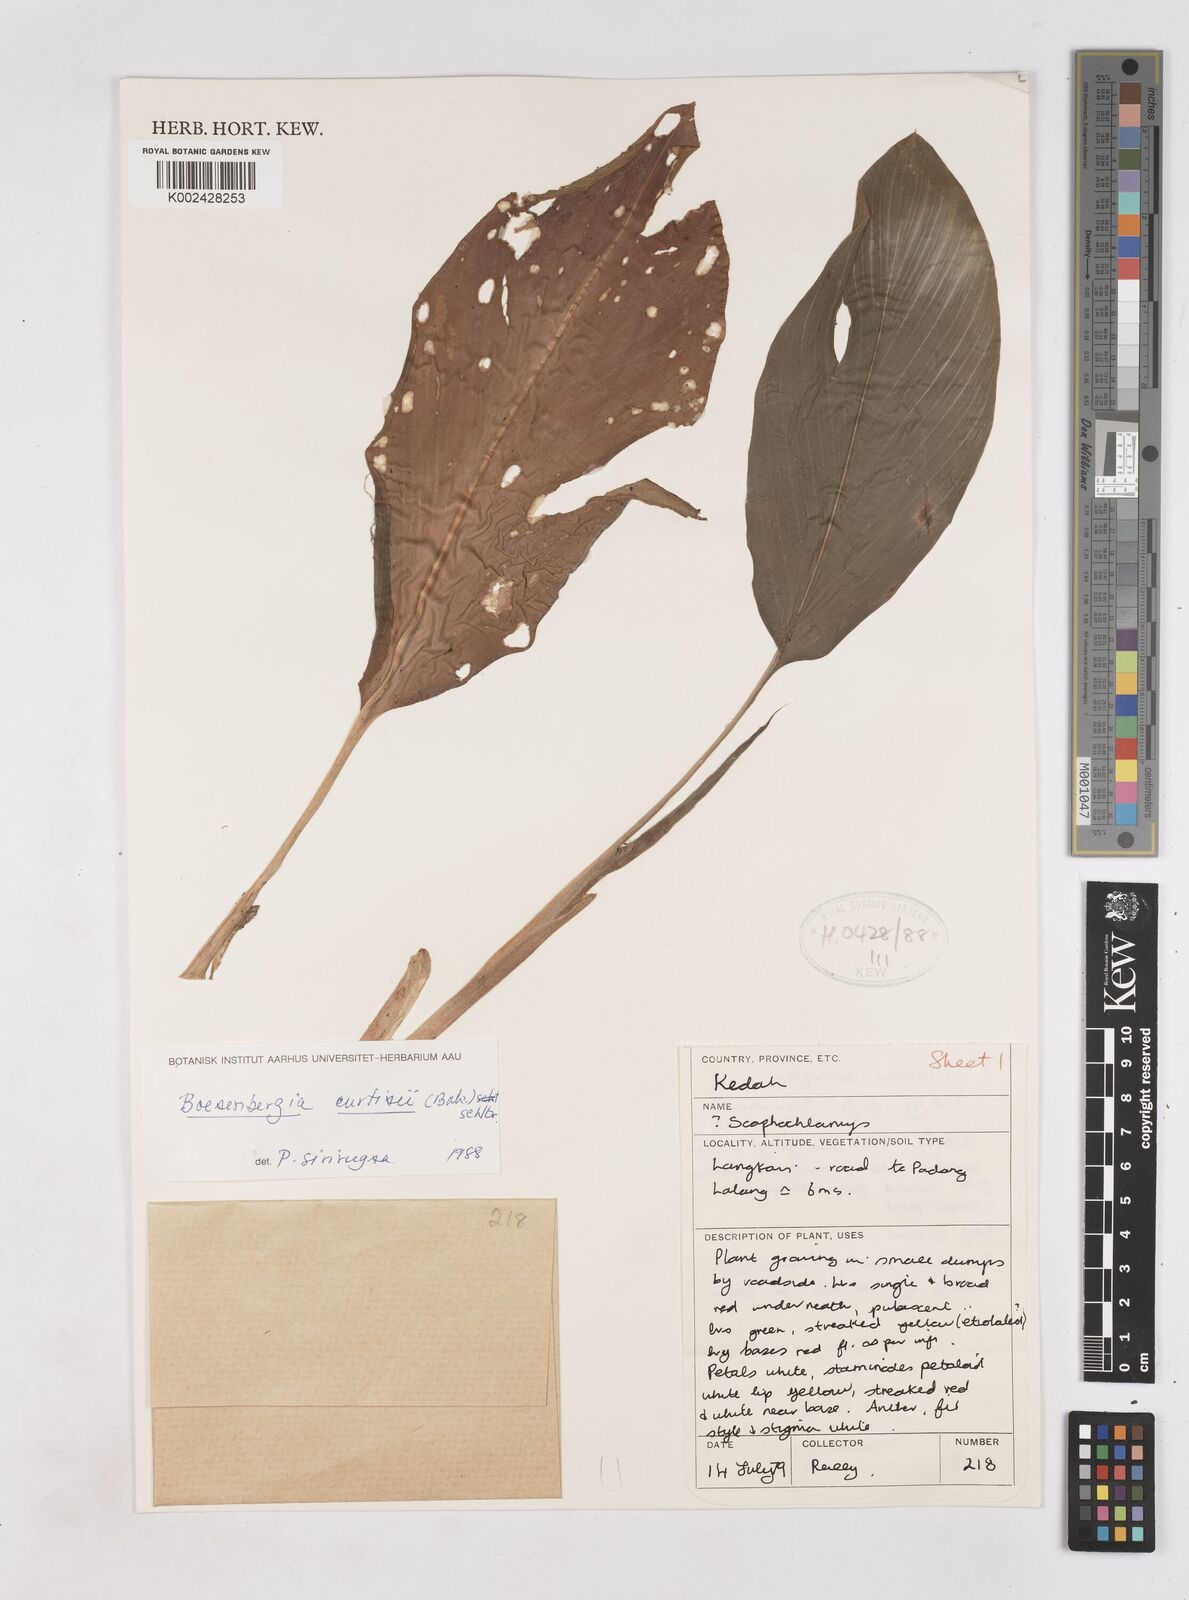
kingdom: Plantae
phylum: Tracheophyta
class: Liliopsida
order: Zingiberales
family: Zingiberaceae
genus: Boesenbergia
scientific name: Boesenbergia curtisii
